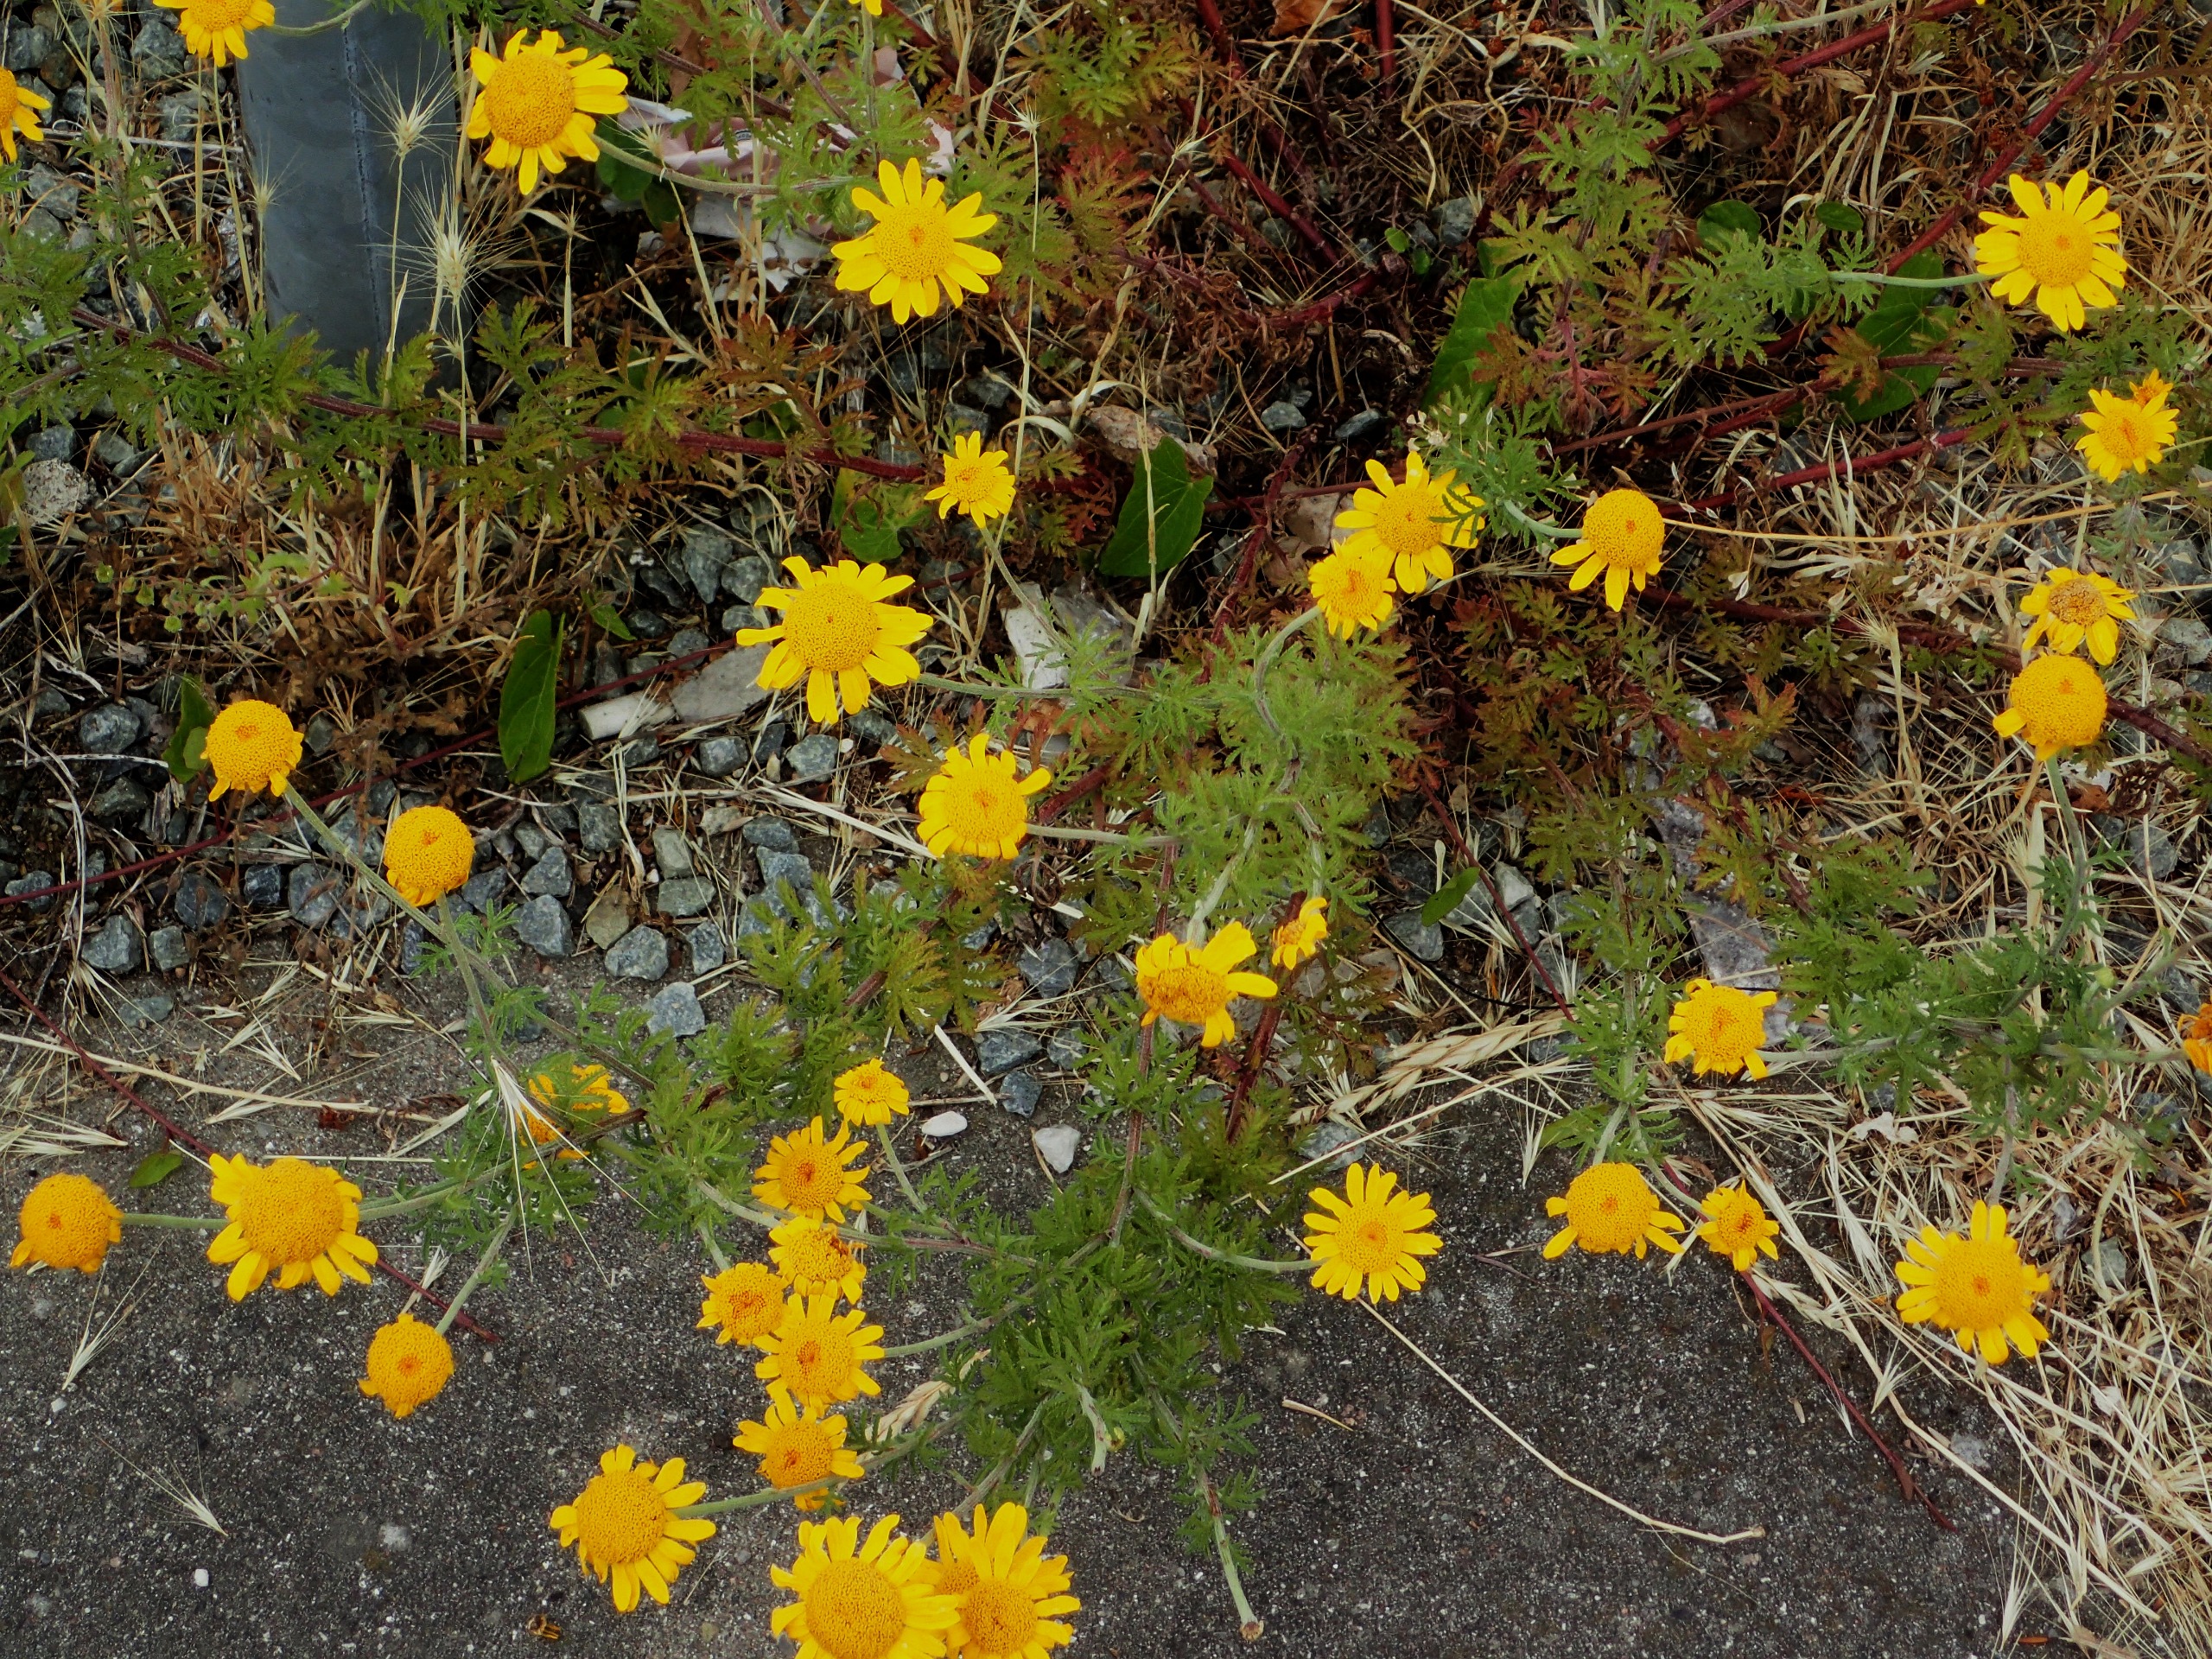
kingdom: Plantae
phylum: Tracheophyta
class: Magnoliopsida
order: Asterales
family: Asteraceae
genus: Cota
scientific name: Cota tinctoria
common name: Farve-gåseurt
